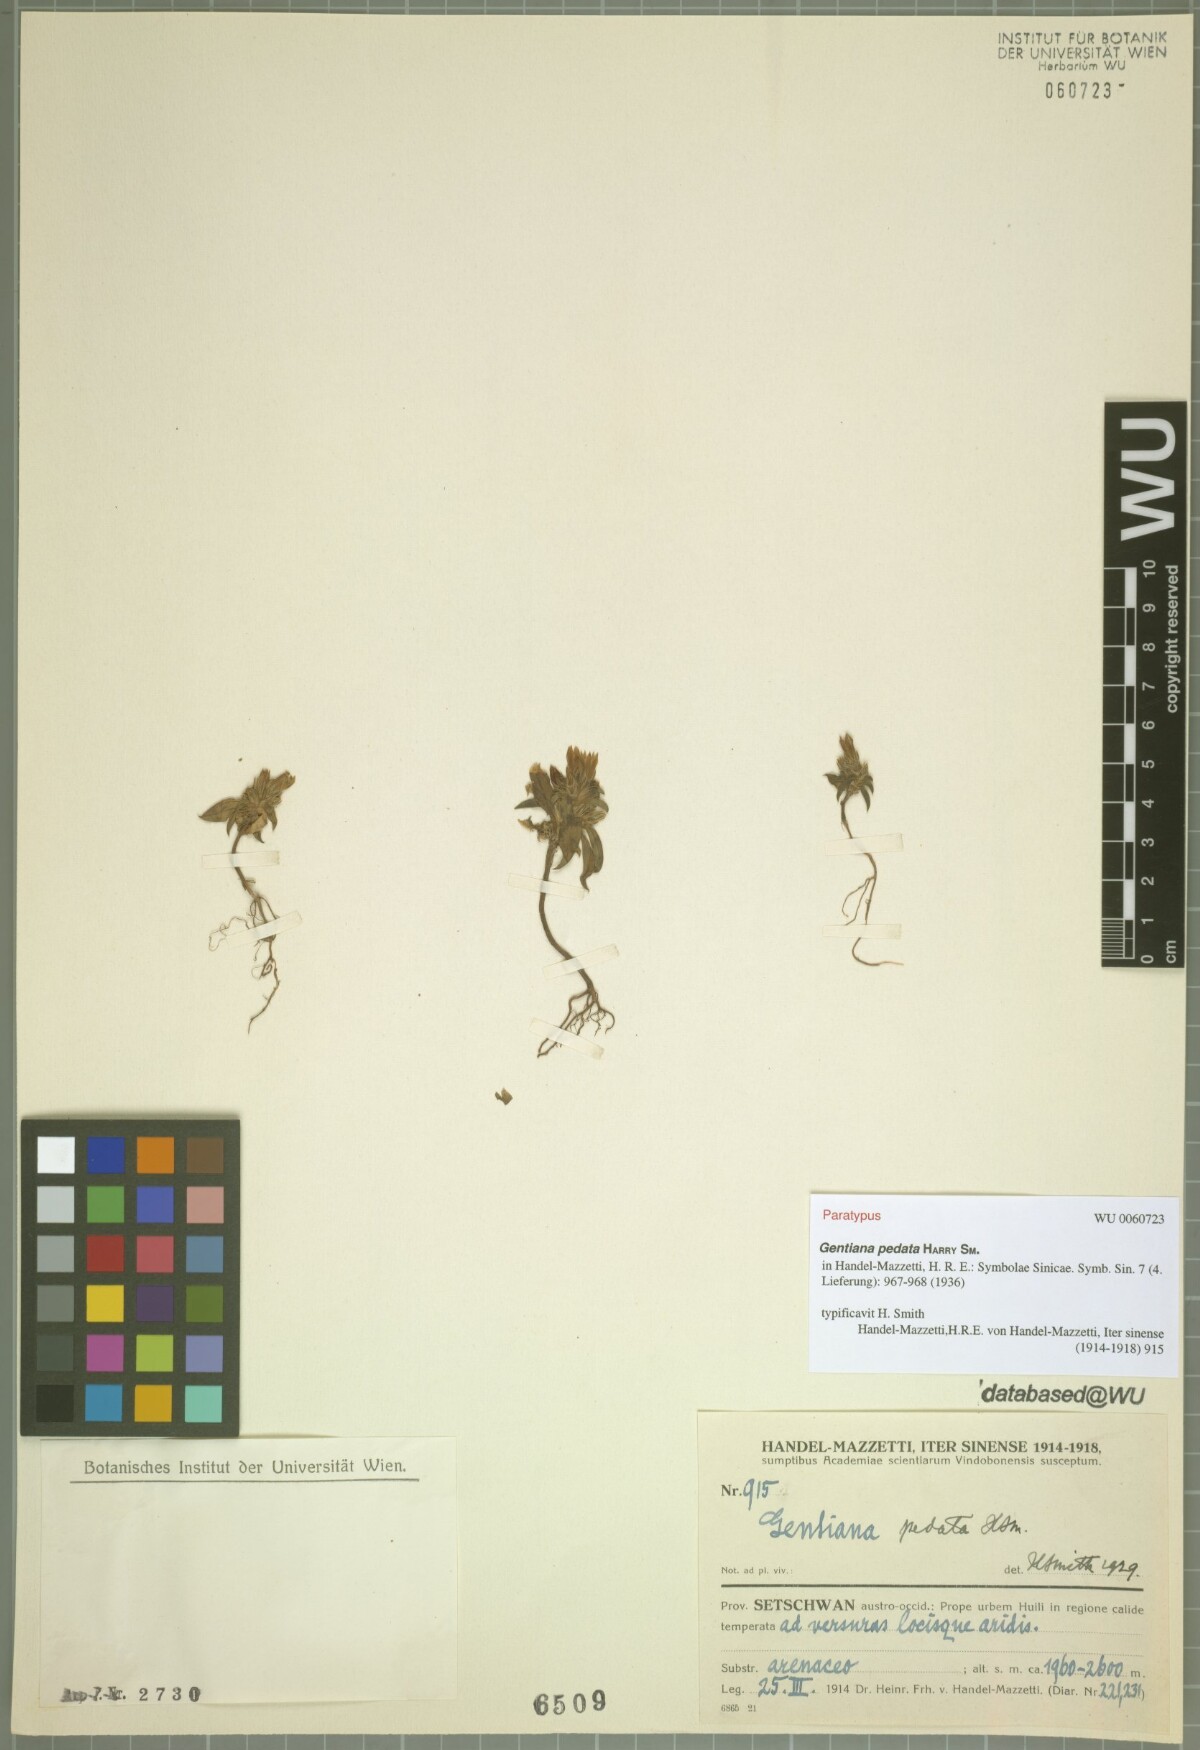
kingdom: Plantae
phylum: Tracheophyta
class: Magnoliopsida
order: Gentianales
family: Gentianaceae
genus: Gentiana
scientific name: Gentiana pedata
